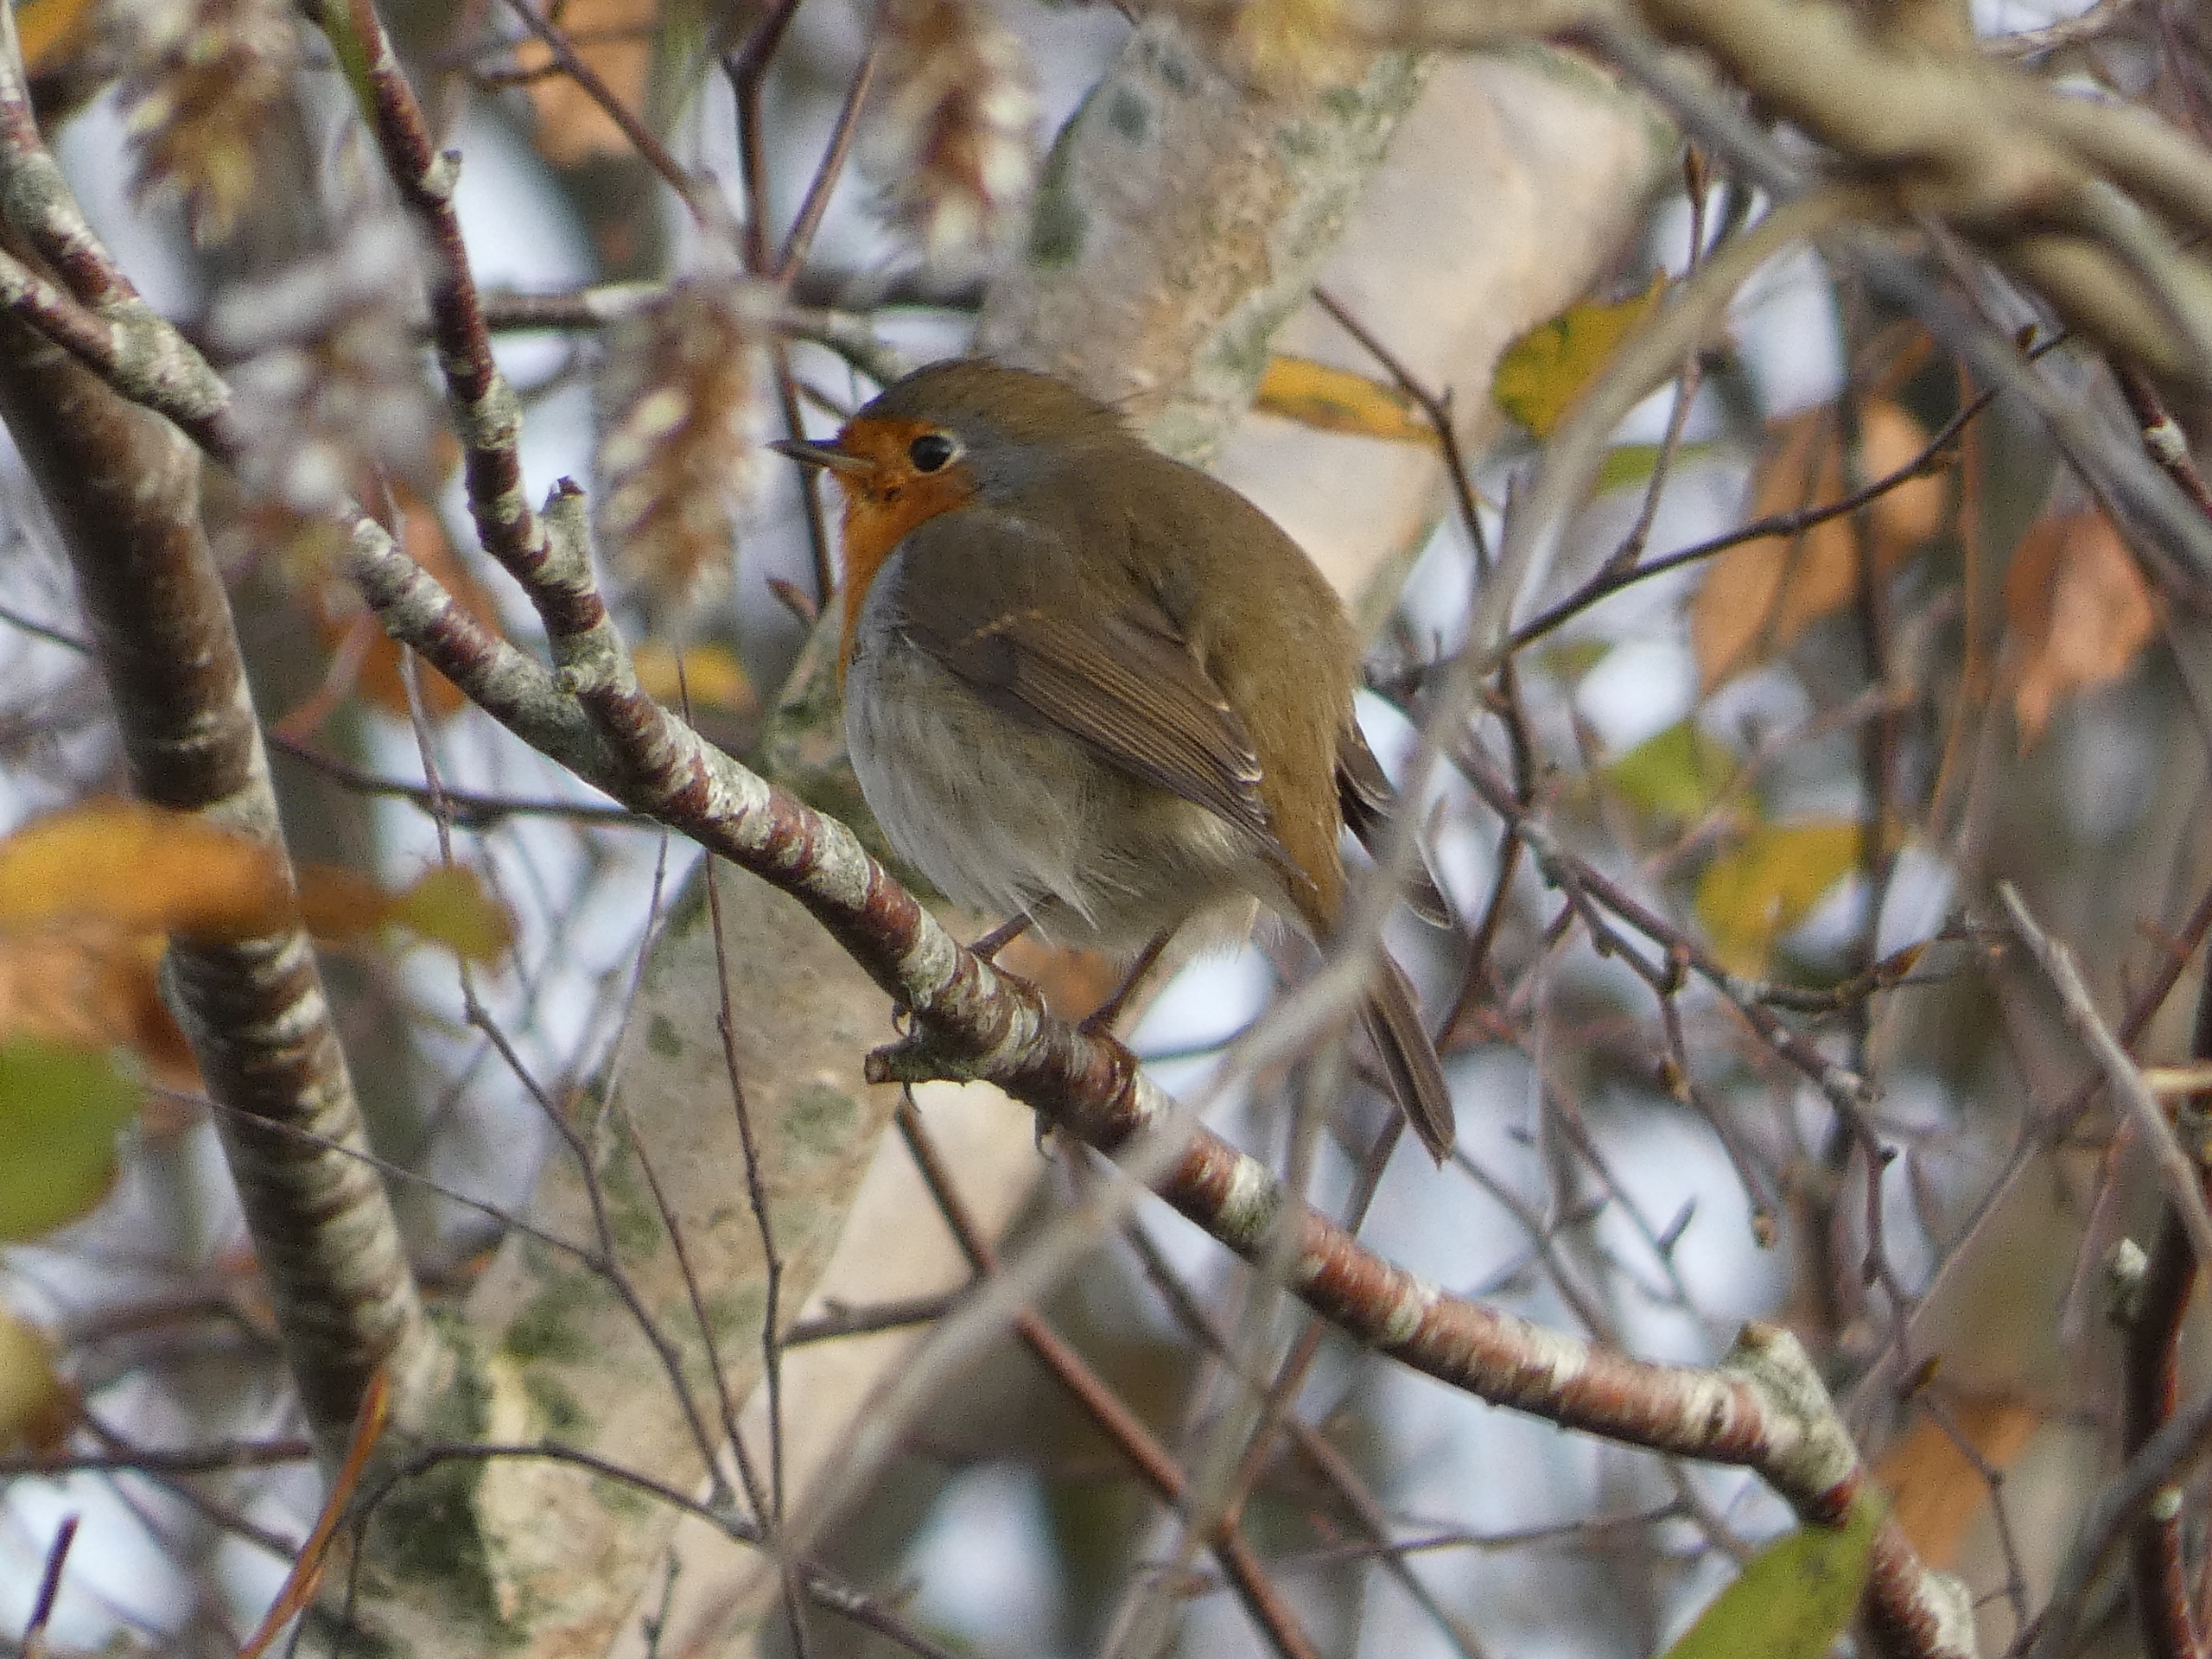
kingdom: Animalia
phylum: Chordata
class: Aves
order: Passeriformes
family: Muscicapidae
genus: Erithacus
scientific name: Erithacus rubecula
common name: Rødhals/rødkælk
